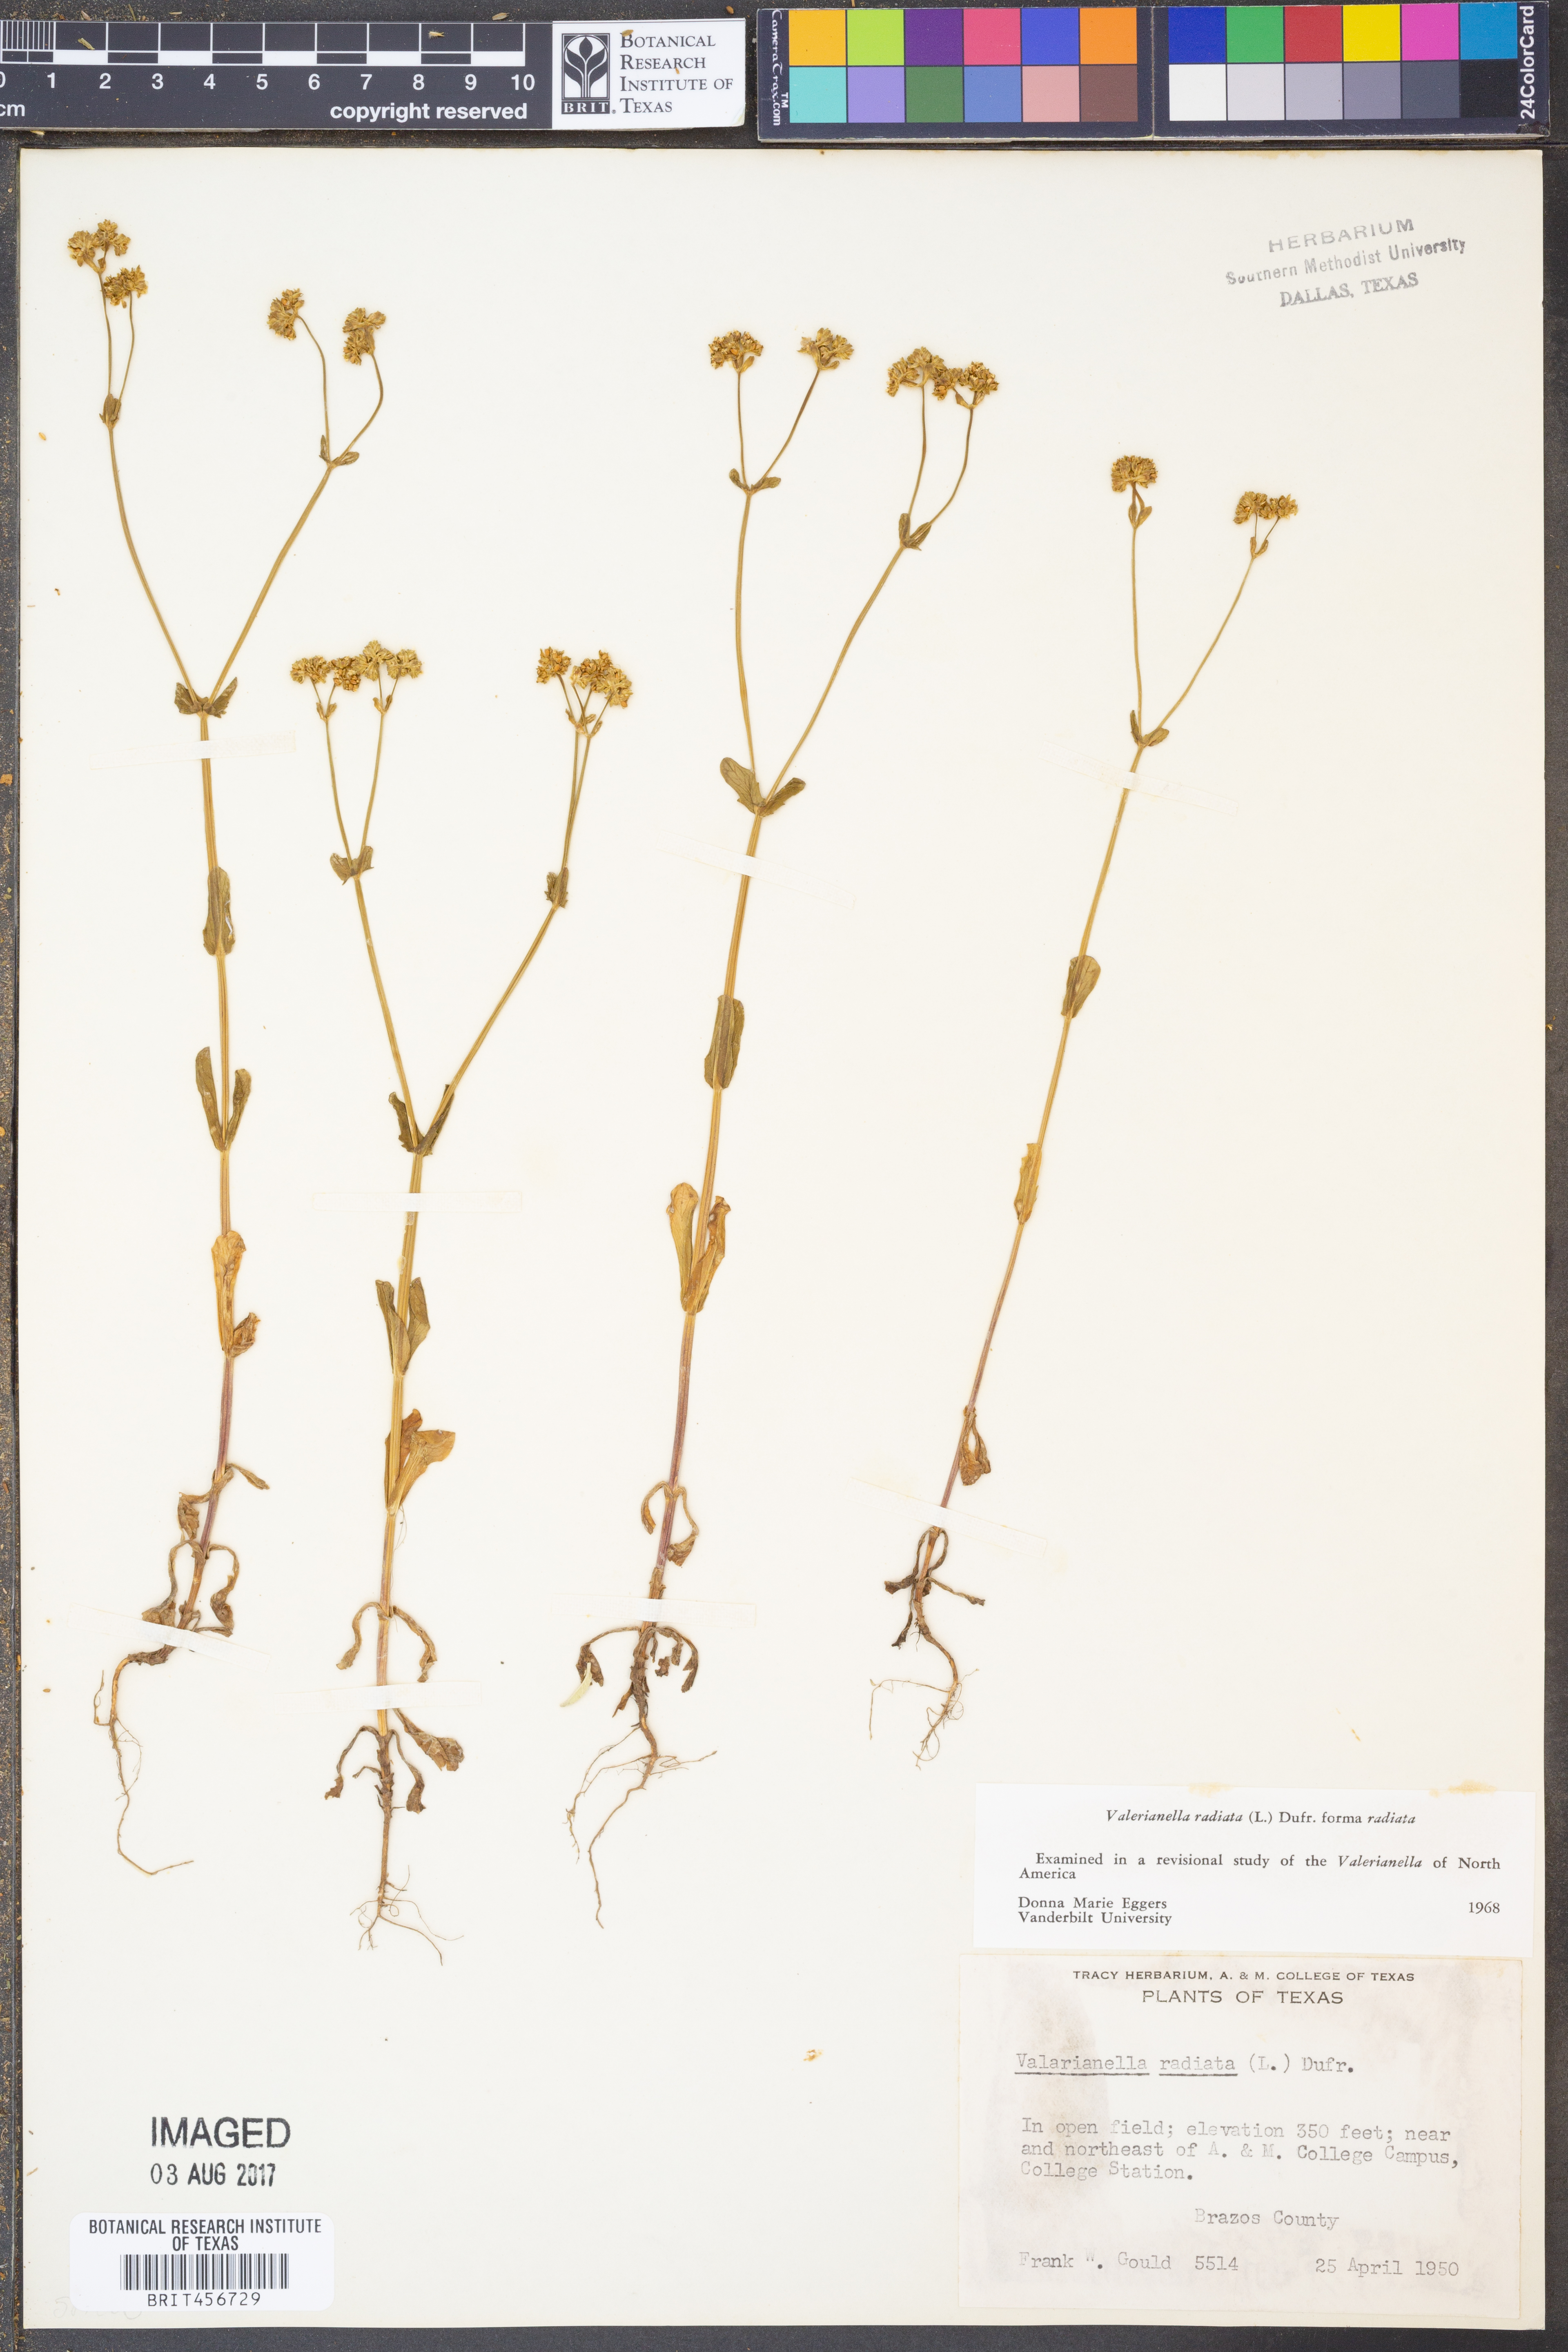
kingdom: Plantae
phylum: Tracheophyta
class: Magnoliopsida
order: Dipsacales
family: Caprifoliaceae
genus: Valerianella
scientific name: Valerianella radiata
